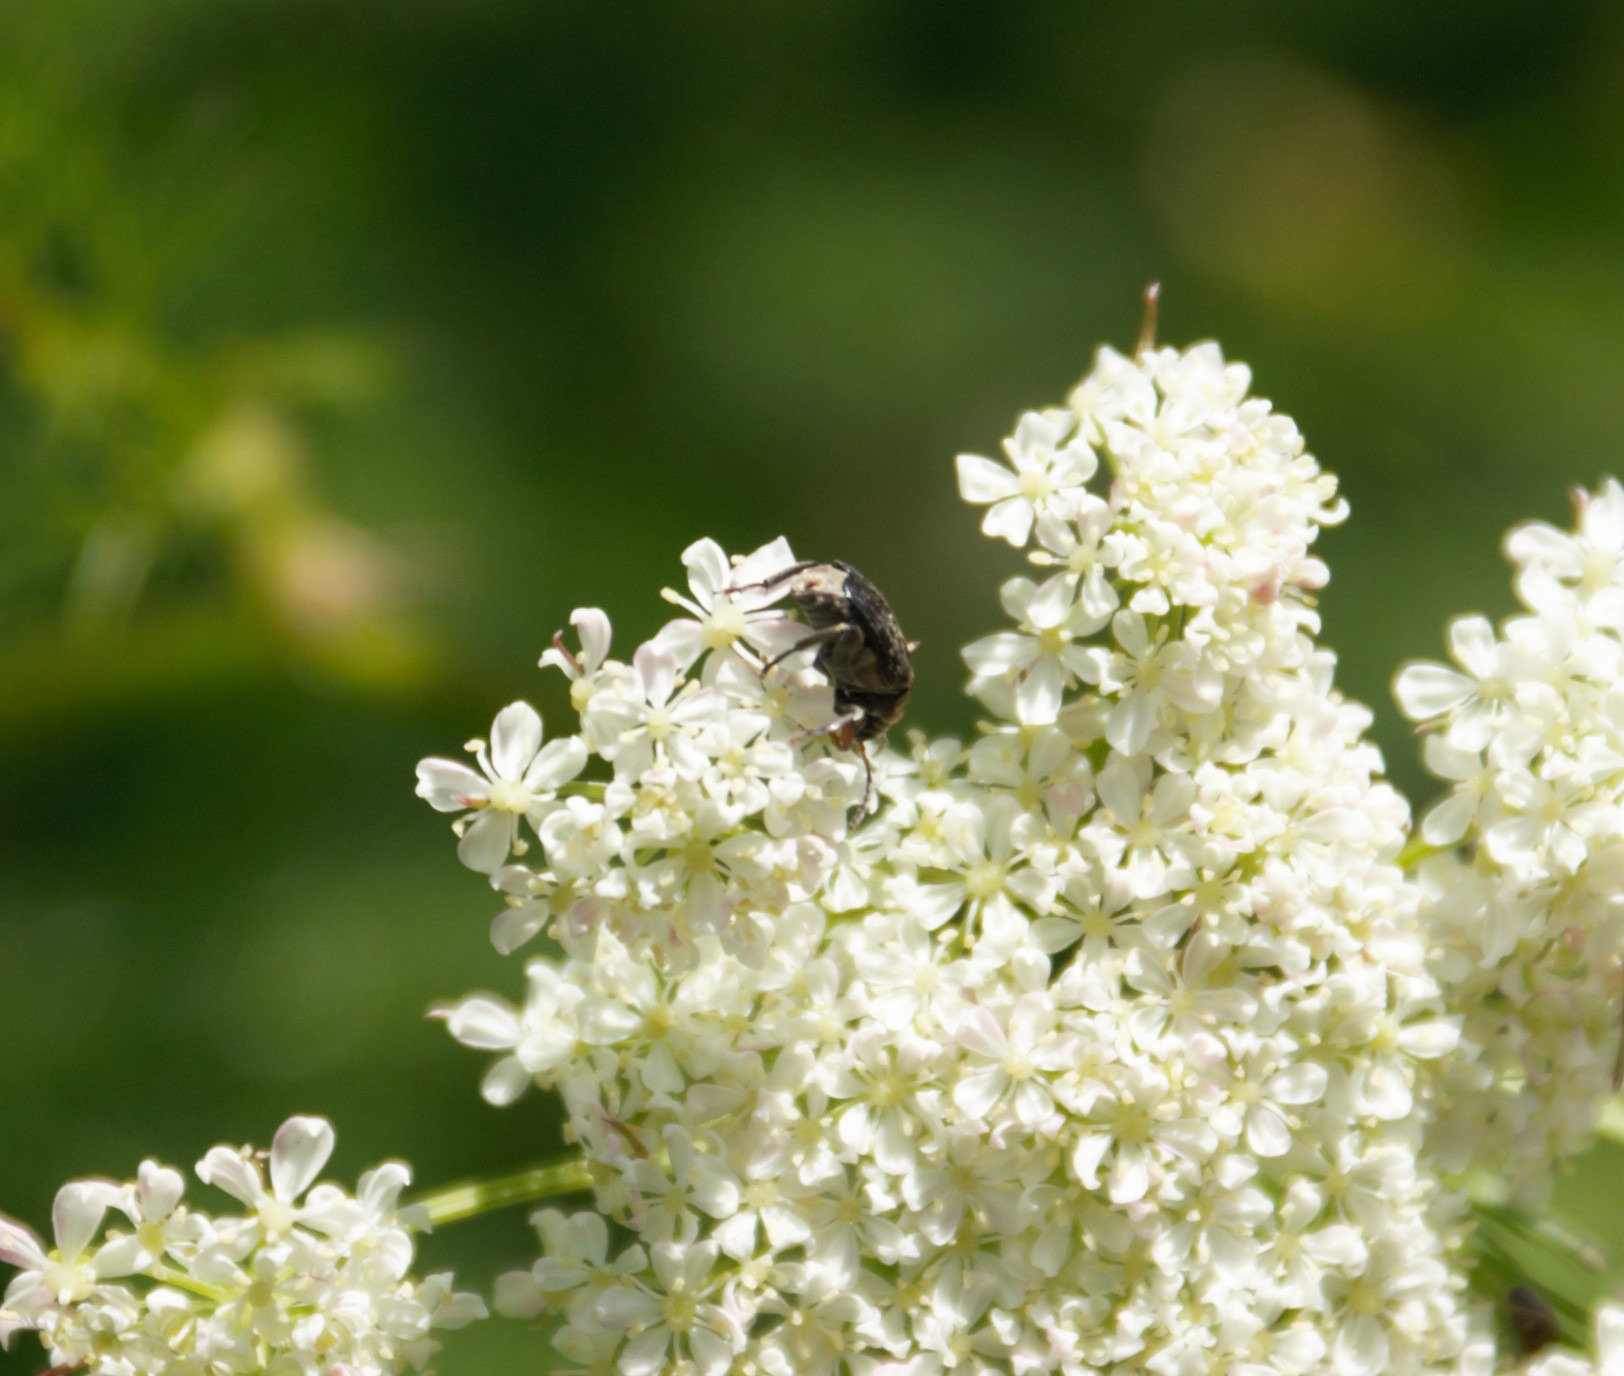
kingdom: Animalia
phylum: Arthropoda
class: Insecta
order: Coleoptera
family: Chrysomelidae
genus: Bruchus
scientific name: Bruchus rufimanus
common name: Hestebønnebille
